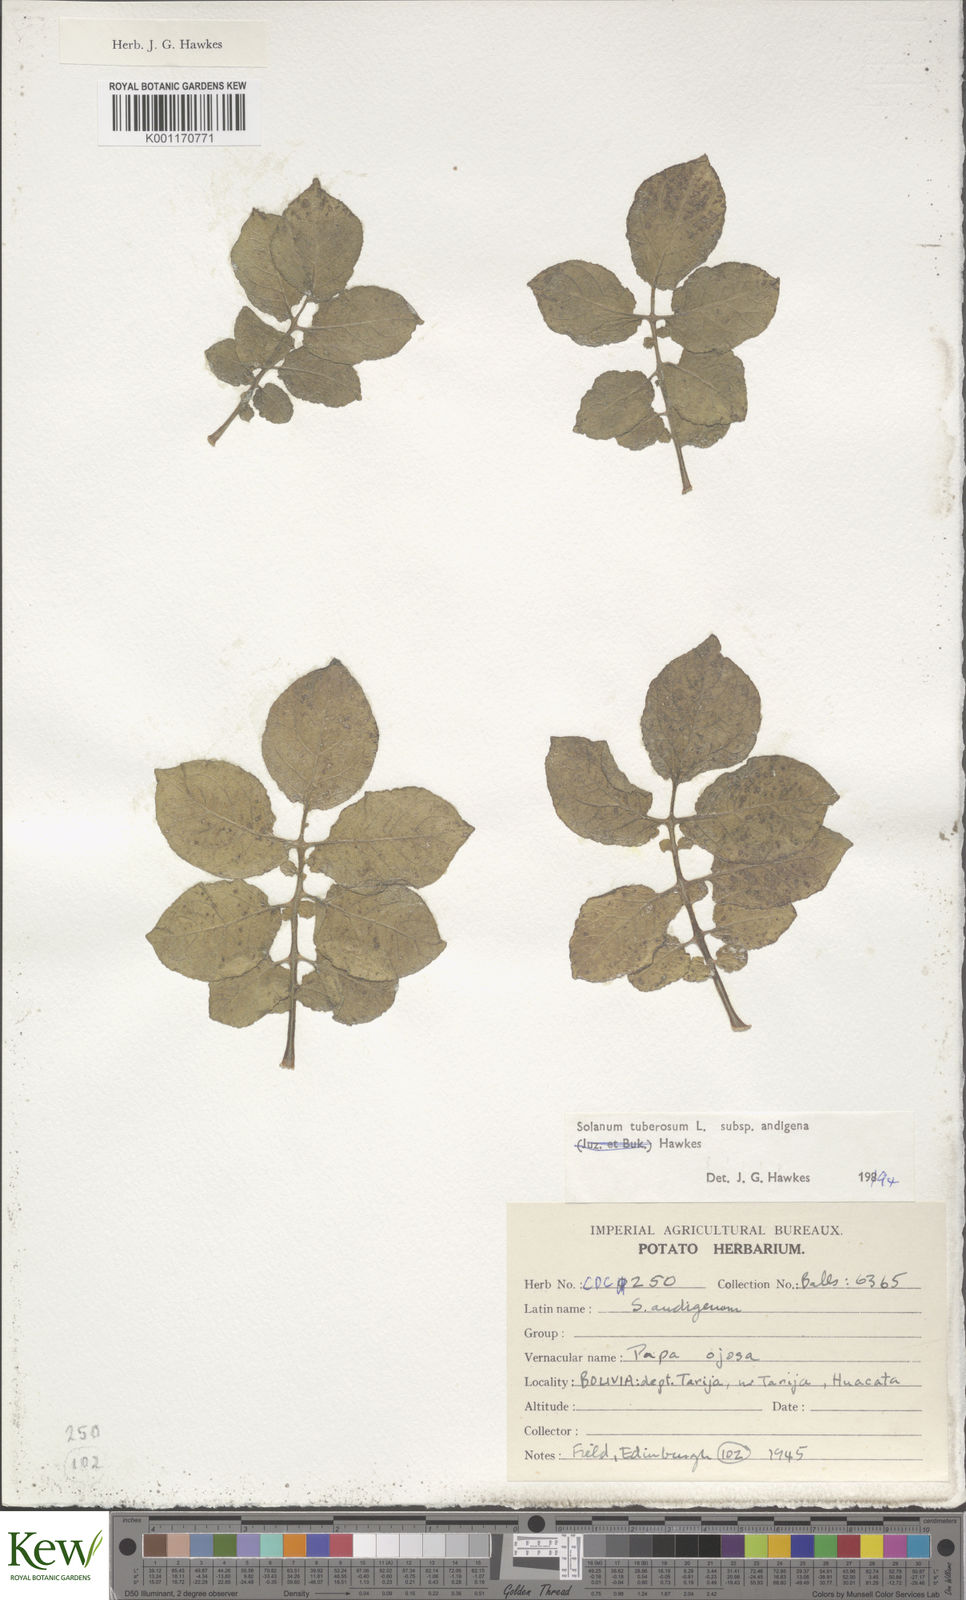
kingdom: Plantae
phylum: Tracheophyta
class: Magnoliopsida
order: Solanales
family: Solanaceae
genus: Solanum
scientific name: Solanum tuberosum
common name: Potato
